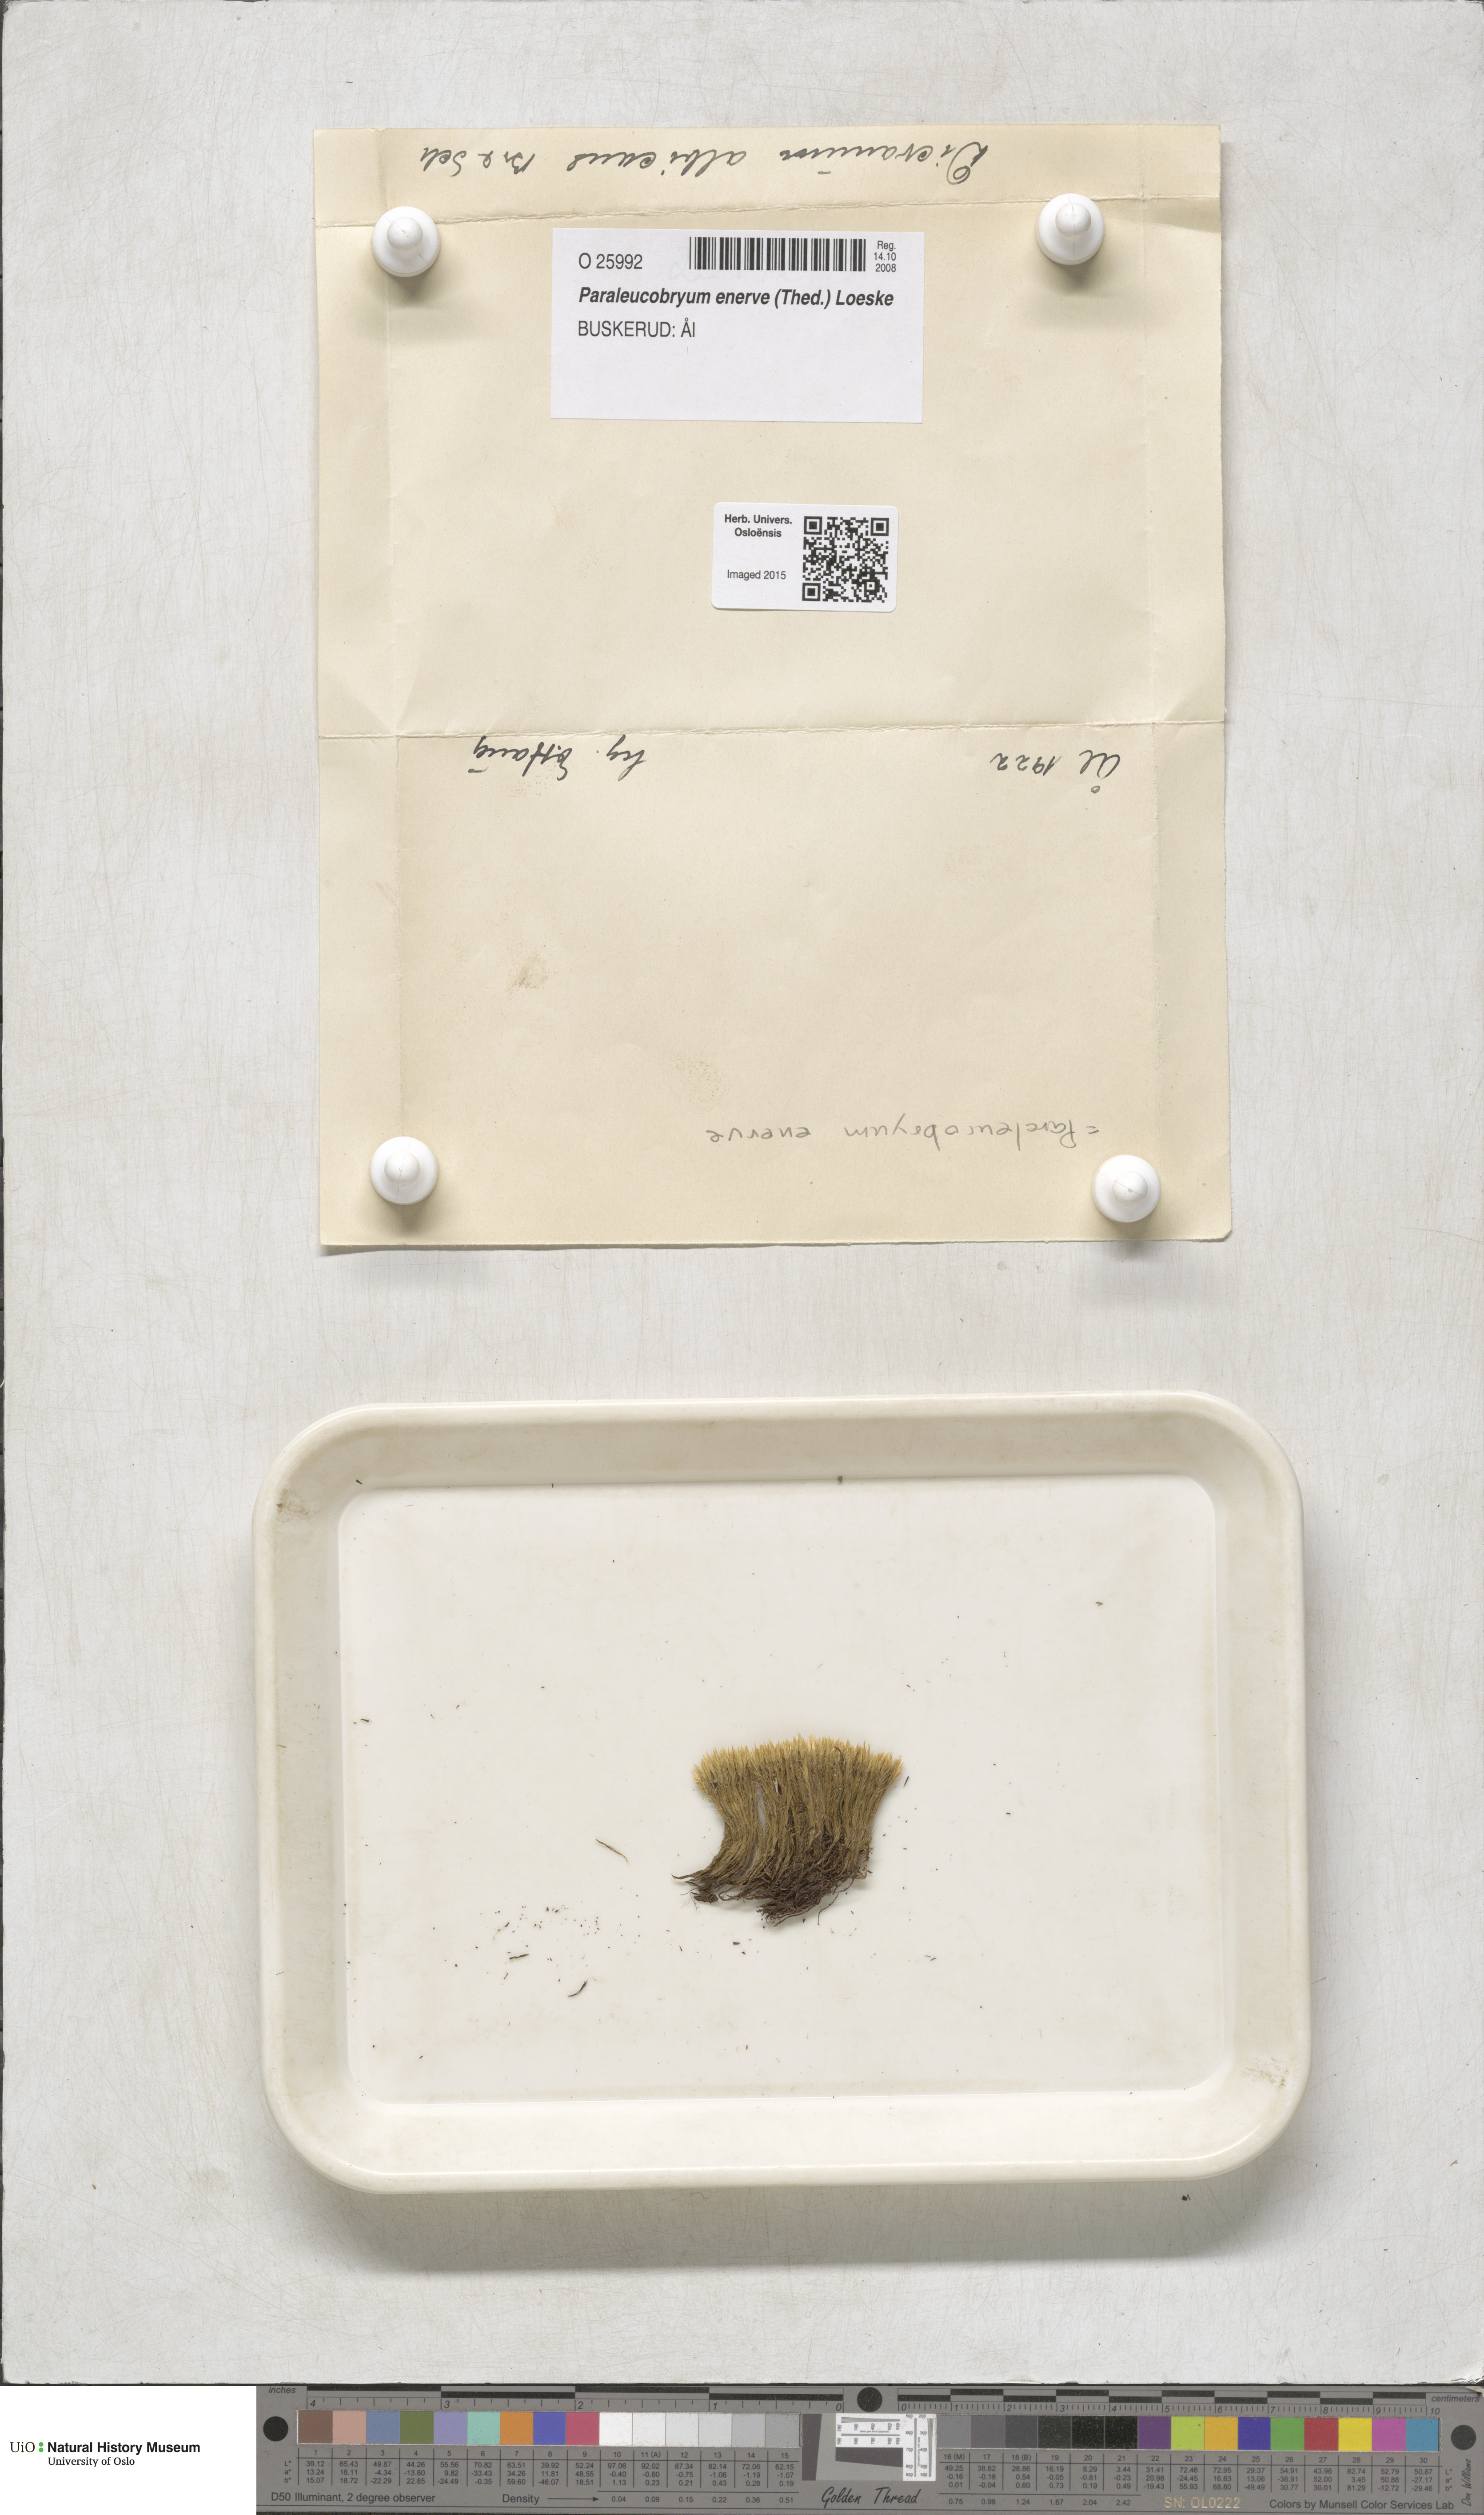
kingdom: Plantae
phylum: Bryophyta
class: Bryopsida
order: Dicranales
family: Dicranaceae
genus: Paraleucobryum
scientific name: Paraleucobryum enerve
